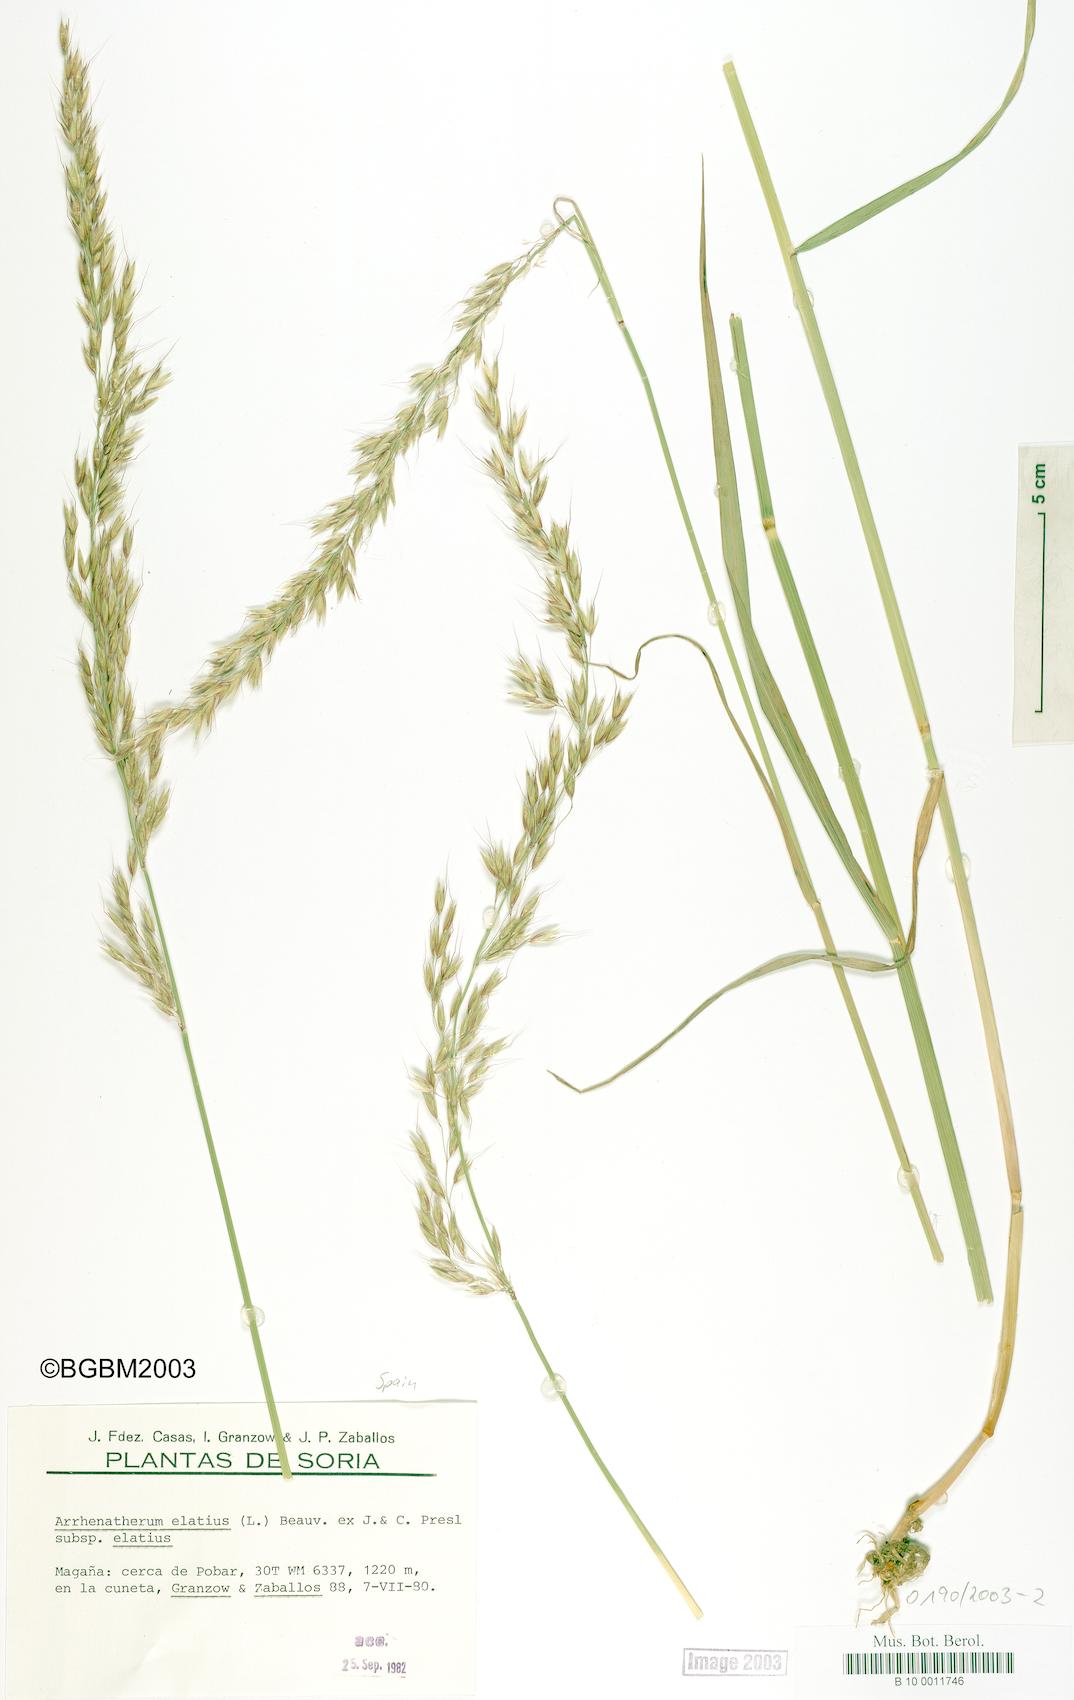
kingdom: Plantae
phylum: Tracheophyta
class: Liliopsida
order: Poales
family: Poaceae
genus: Arrhenatherum
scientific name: Arrhenatherum elatius
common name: Tall oatgrass
